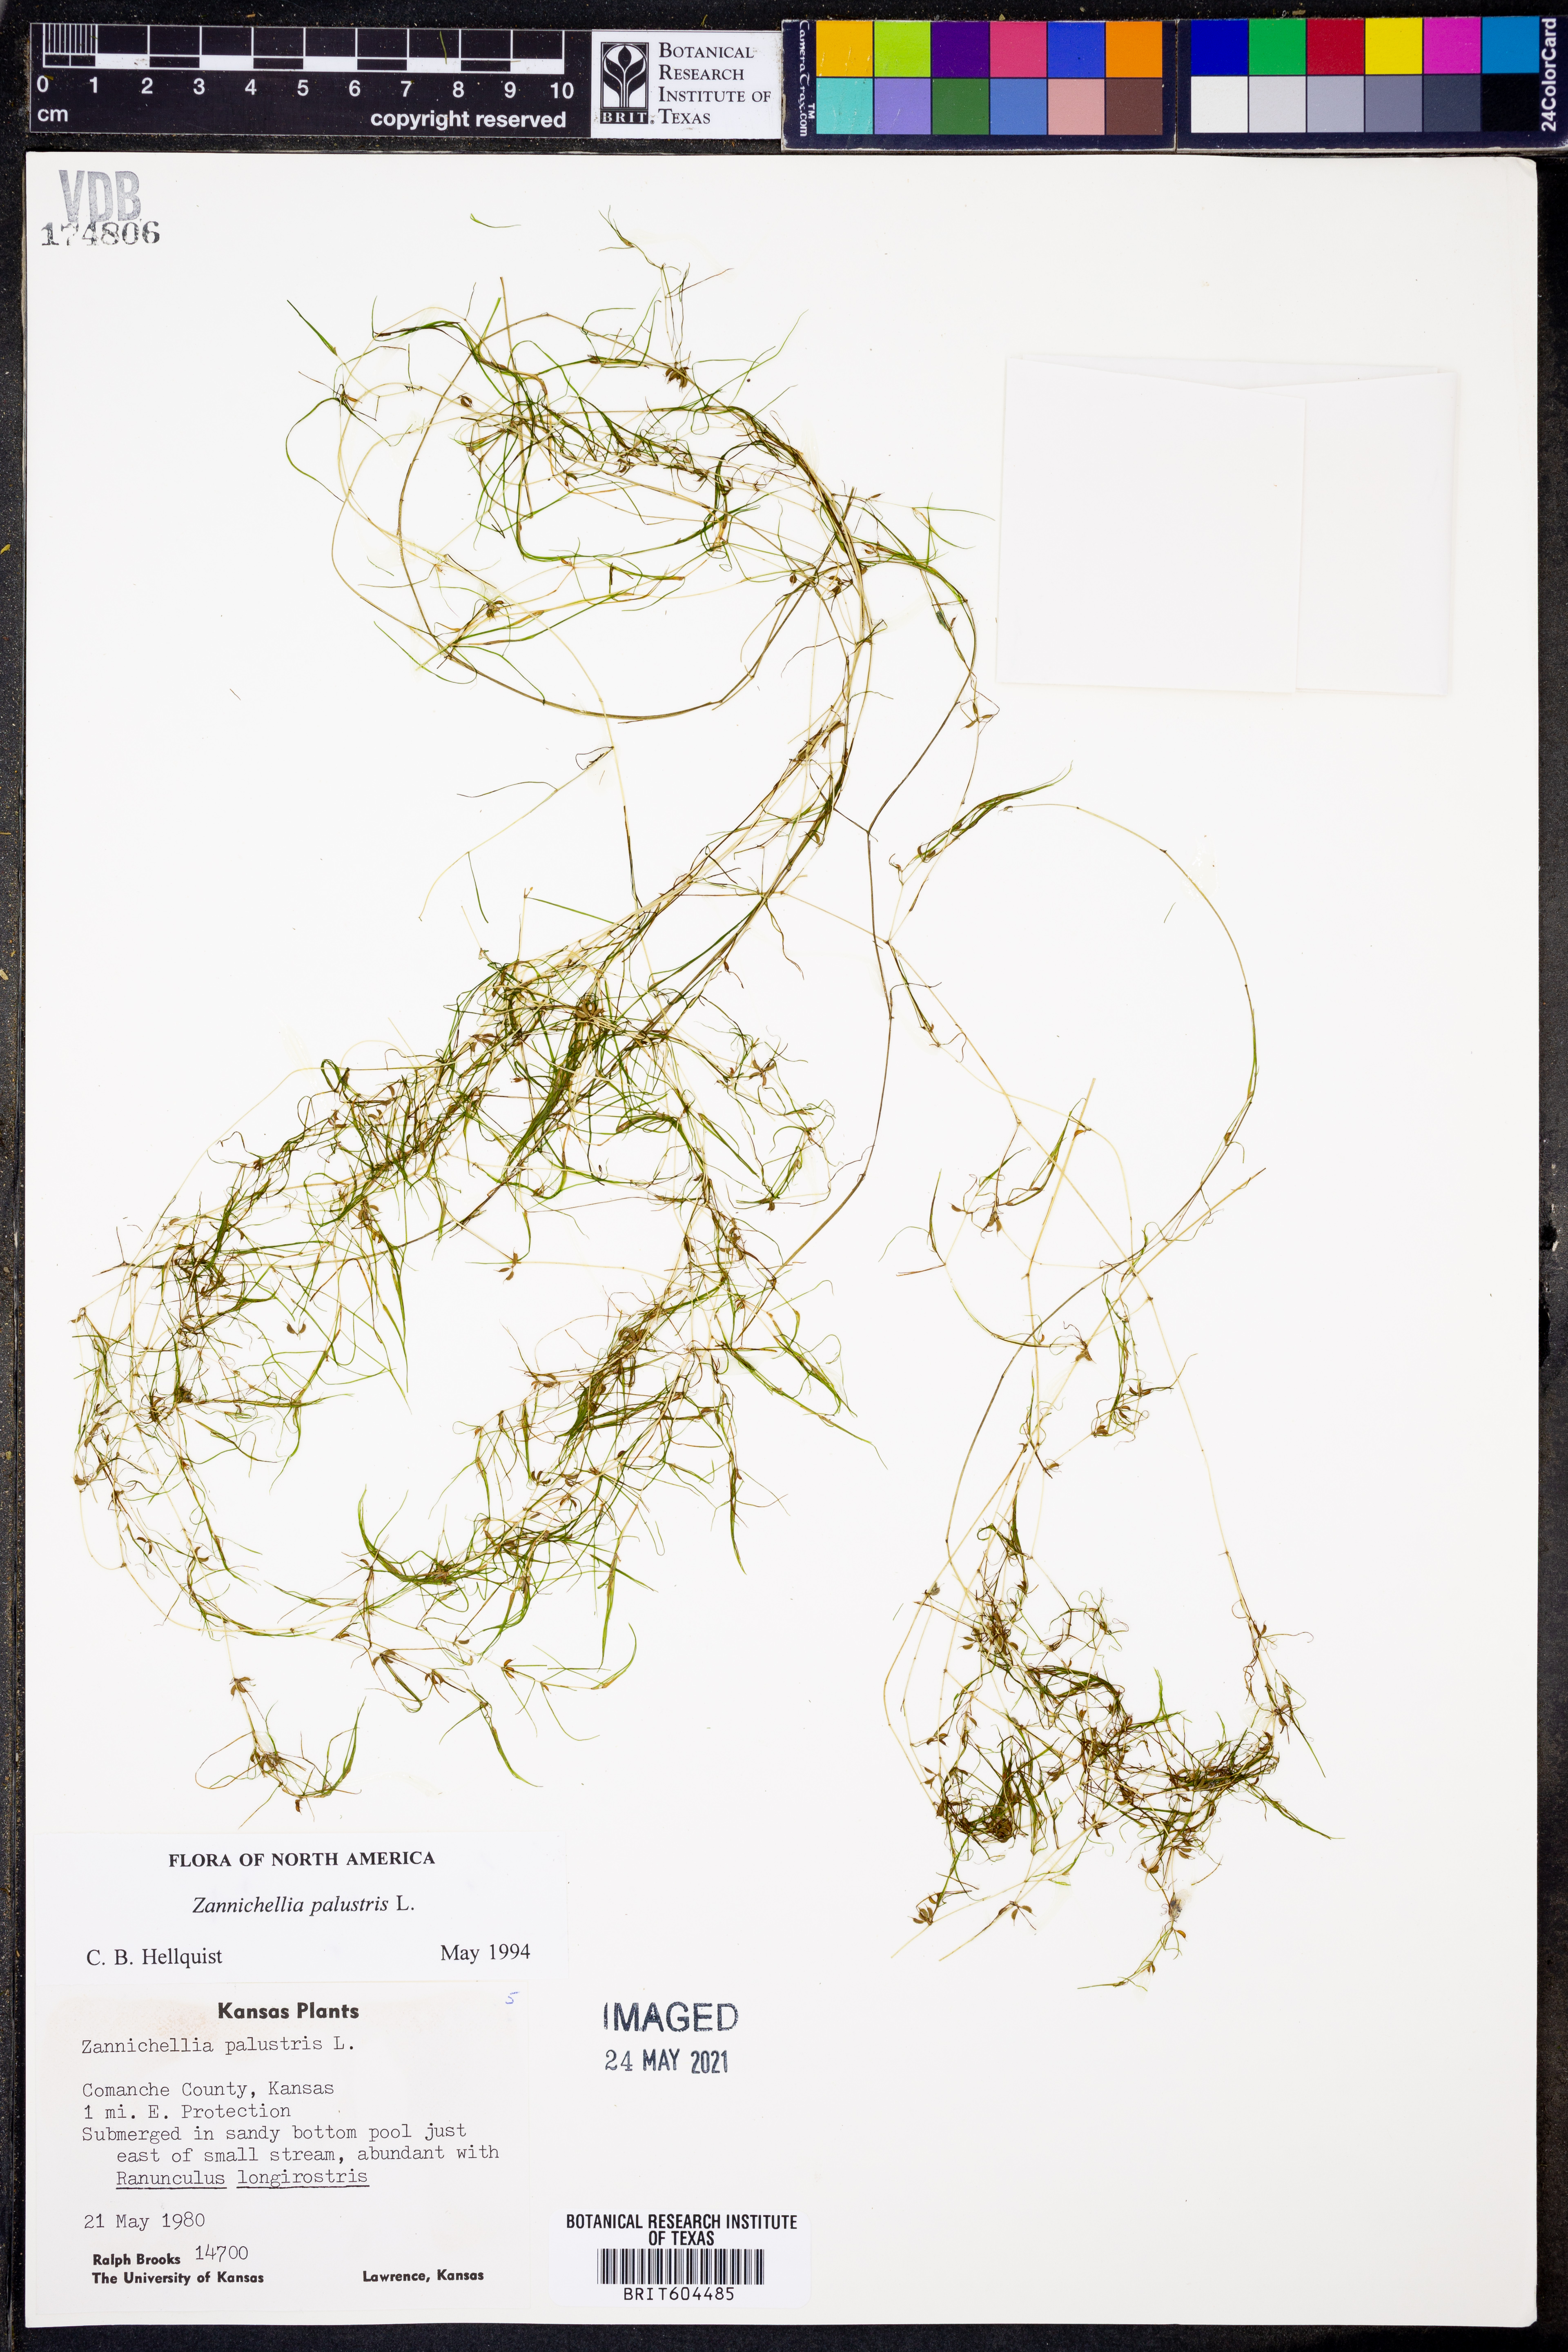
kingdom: Plantae
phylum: Tracheophyta
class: Liliopsida
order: Alismatales
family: Potamogetonaceae
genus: Zannichellia
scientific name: Zannichellia palustris
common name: Horned pondweed
